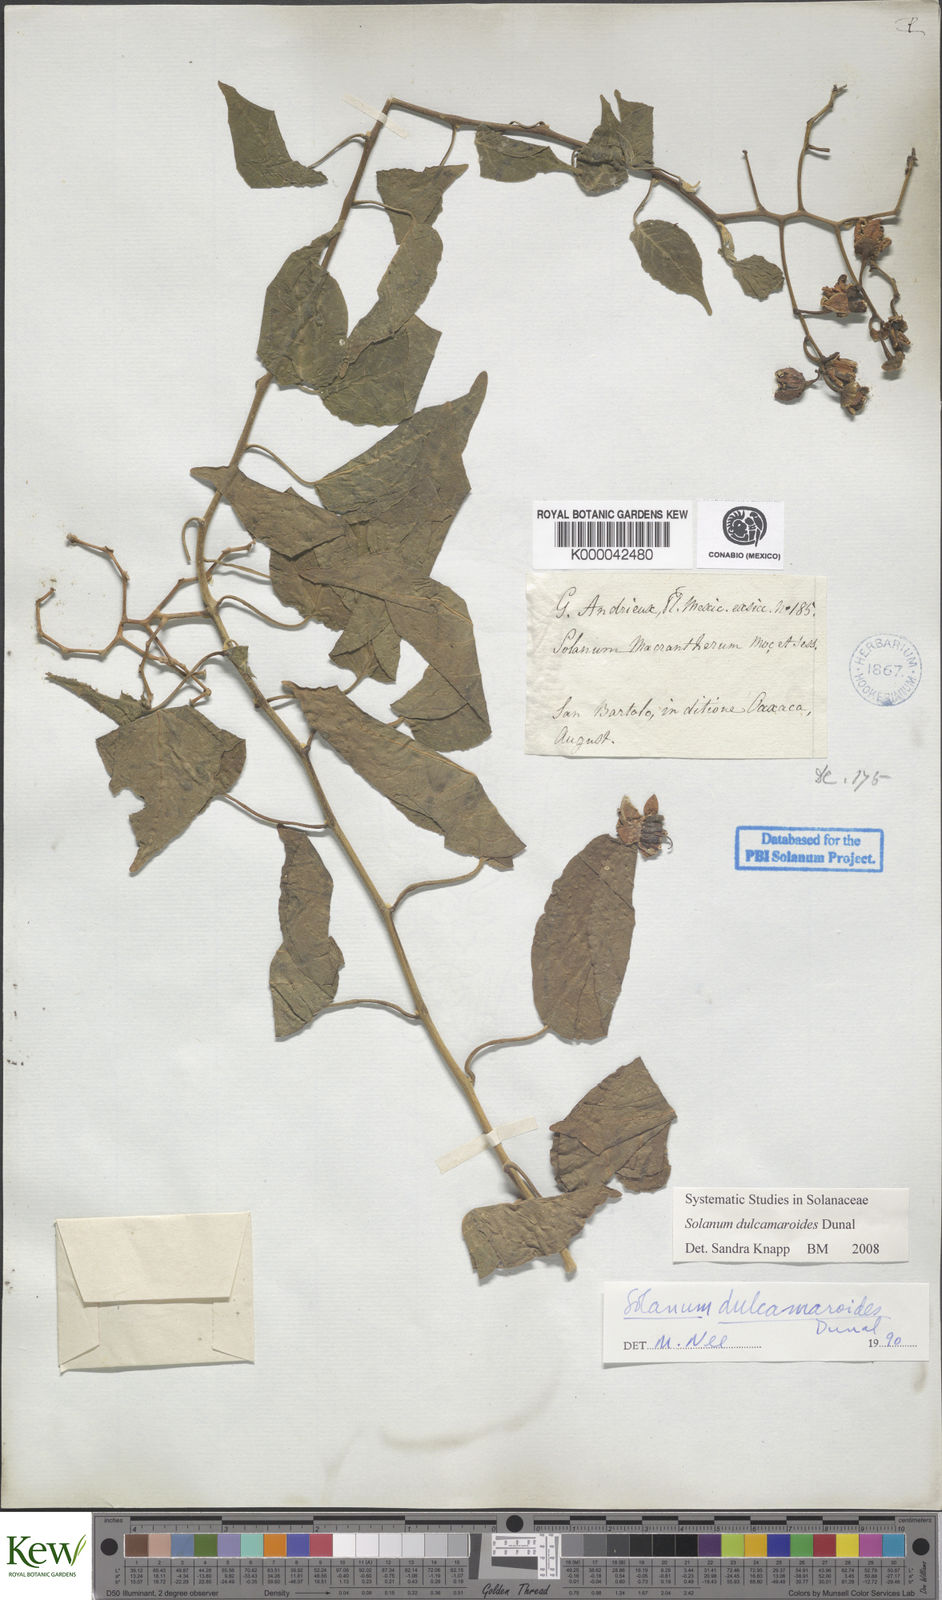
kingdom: Plantae
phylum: Tracheophyta
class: Magnoliopsida
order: Solanales
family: Solanaceae
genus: Solanum
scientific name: Solanum dulcamaroides
